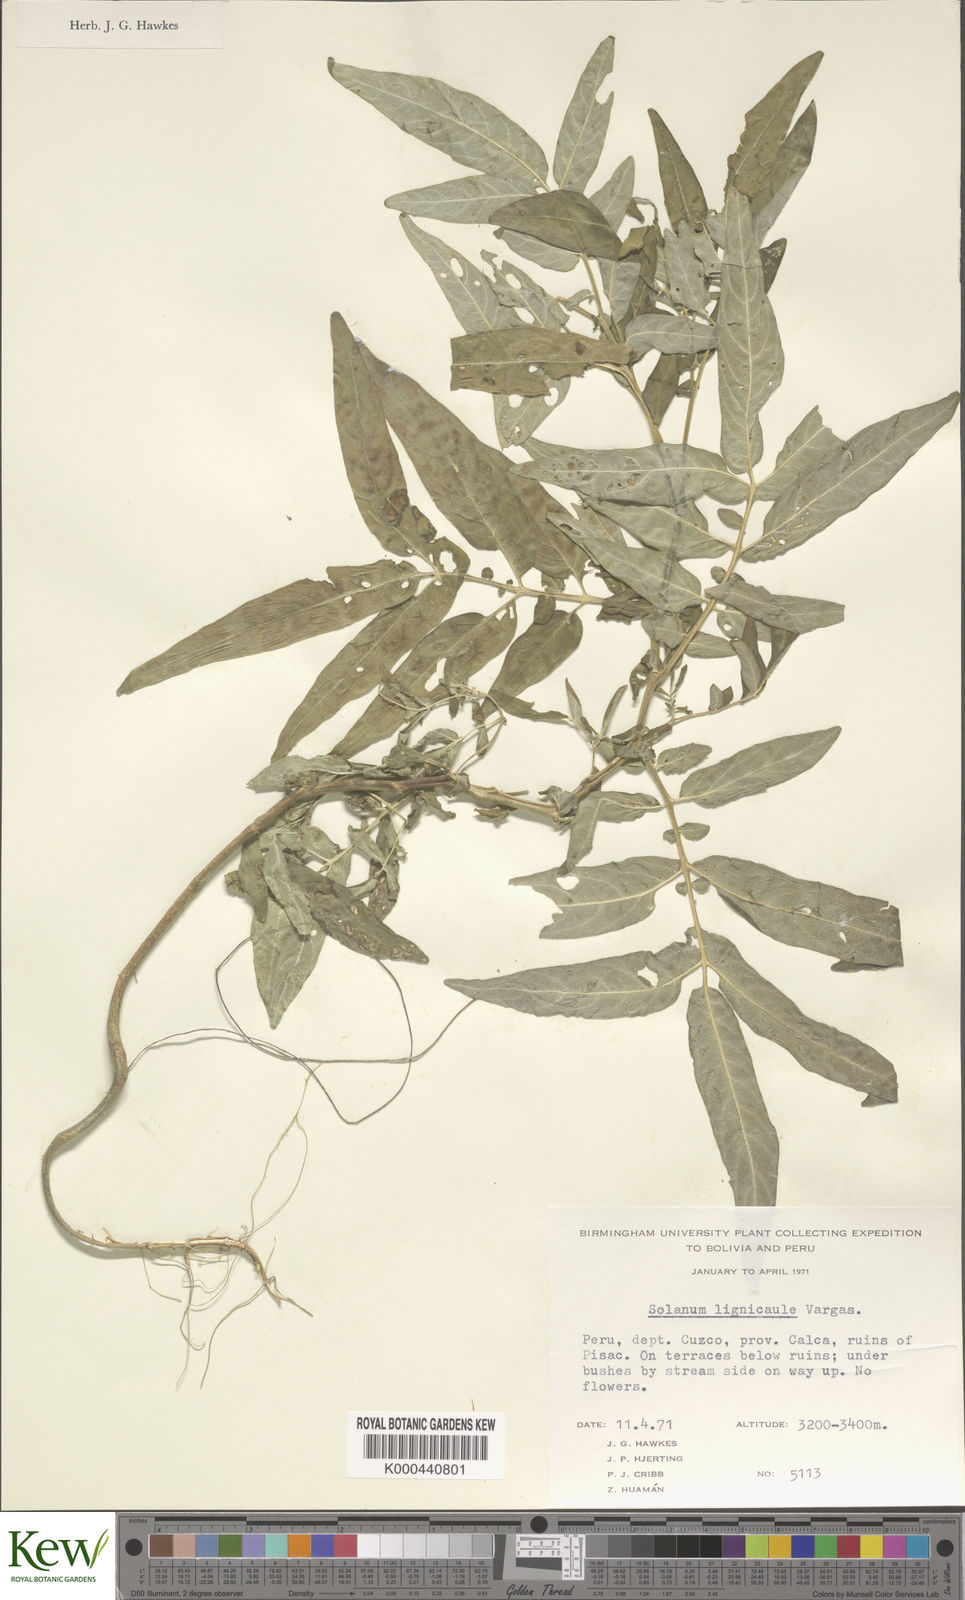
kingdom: Plantae
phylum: Tracheophyta
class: Magnoliopsida
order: Solanales
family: Solanaceae
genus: Solanum
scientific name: Solanum lignicaule
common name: Fox potato
